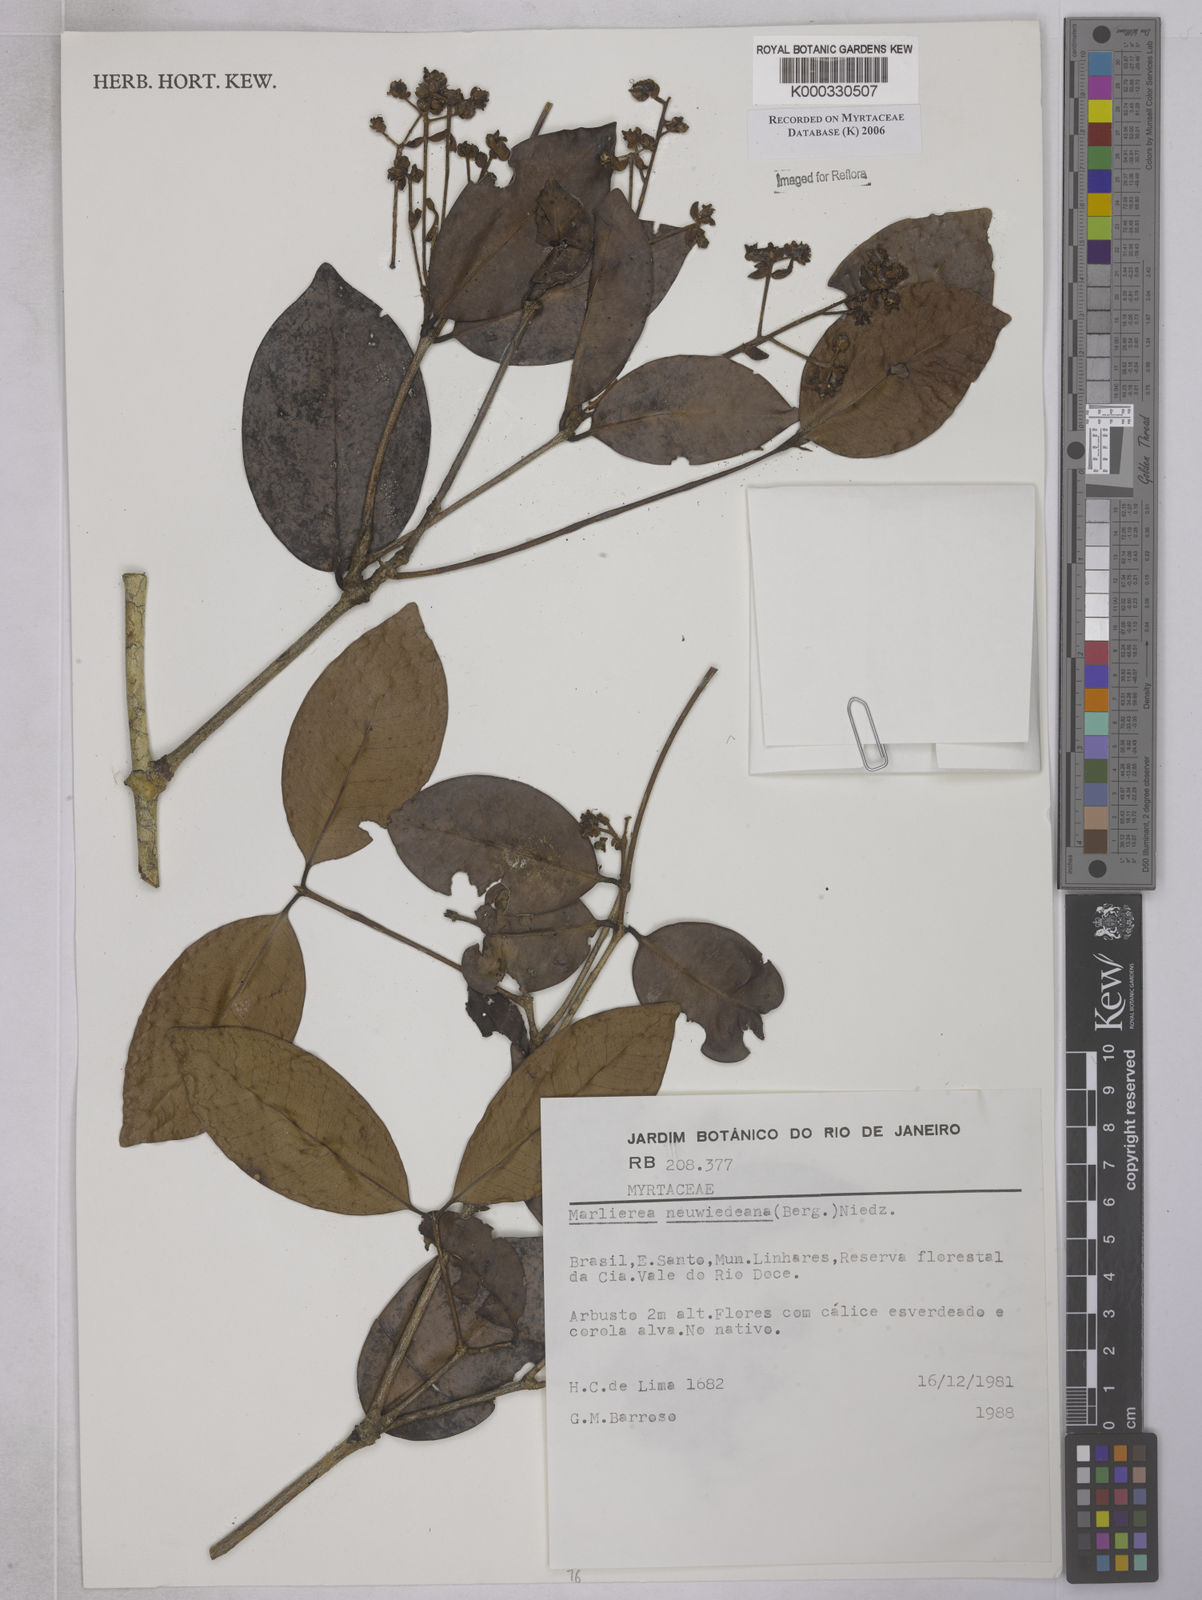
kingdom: Plantae
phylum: Tracheophyta
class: Magnoliopsida
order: Myrtales
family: Myrtaceae
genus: Myrcia
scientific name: Myrcia neuwiedeana
